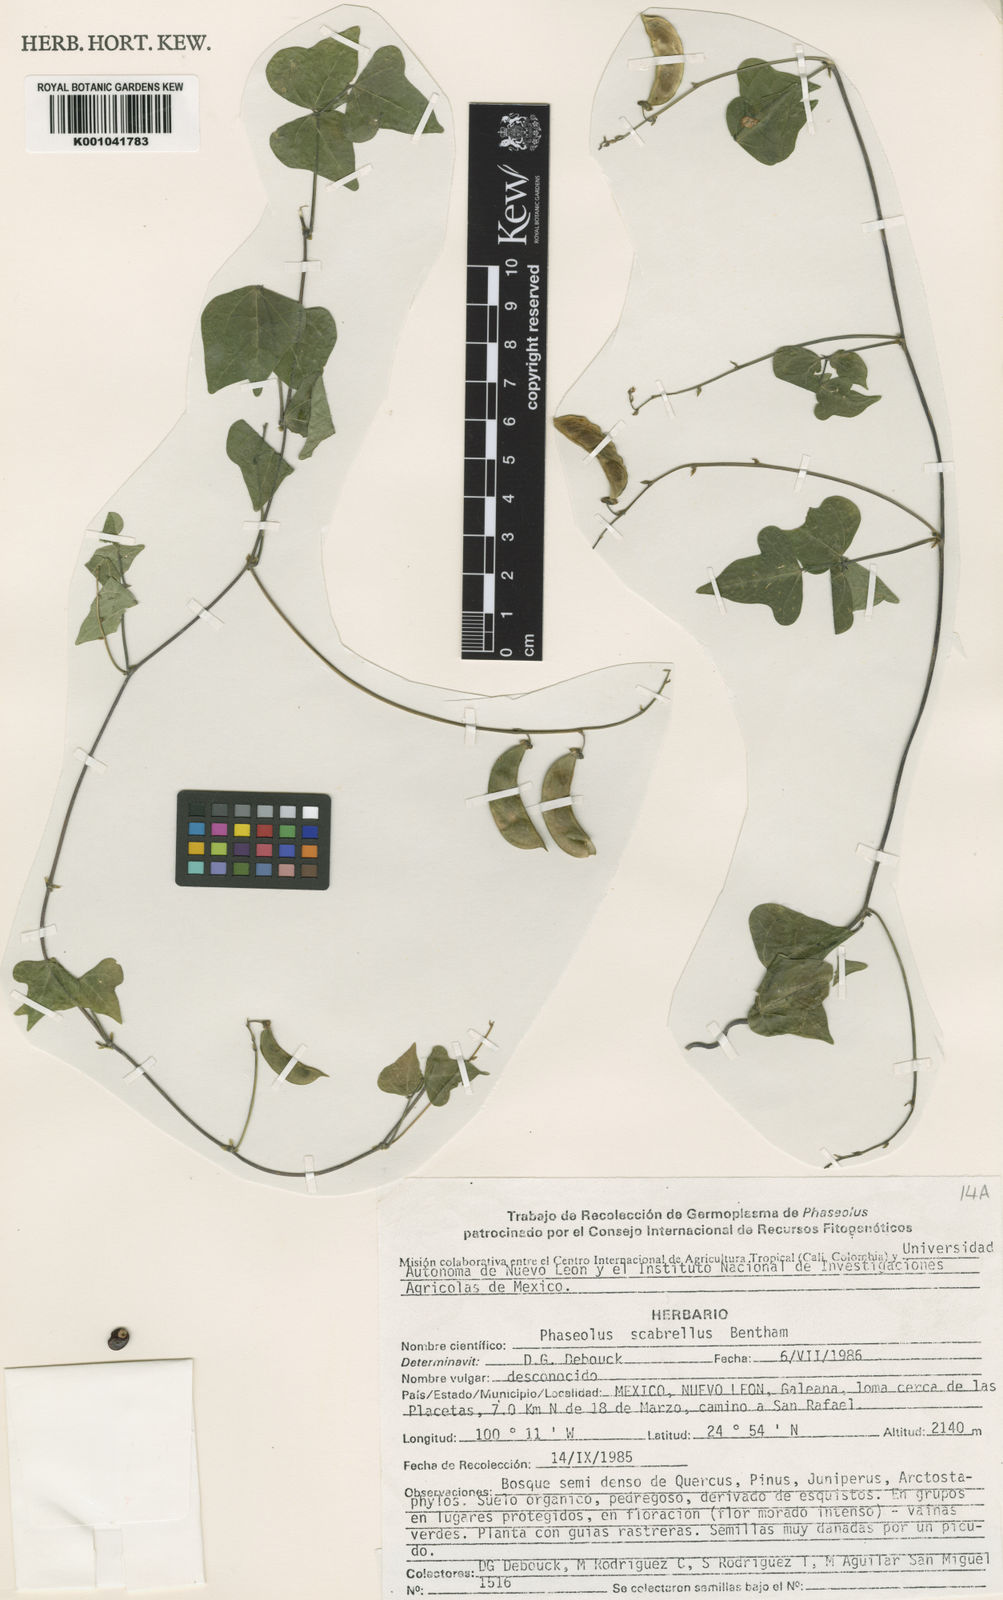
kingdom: Plantae
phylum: Tracheophyta
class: Magnoliopsida
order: Fabales
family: Fabaceae
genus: Phaseolus
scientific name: Phaseolus pedicellatus
